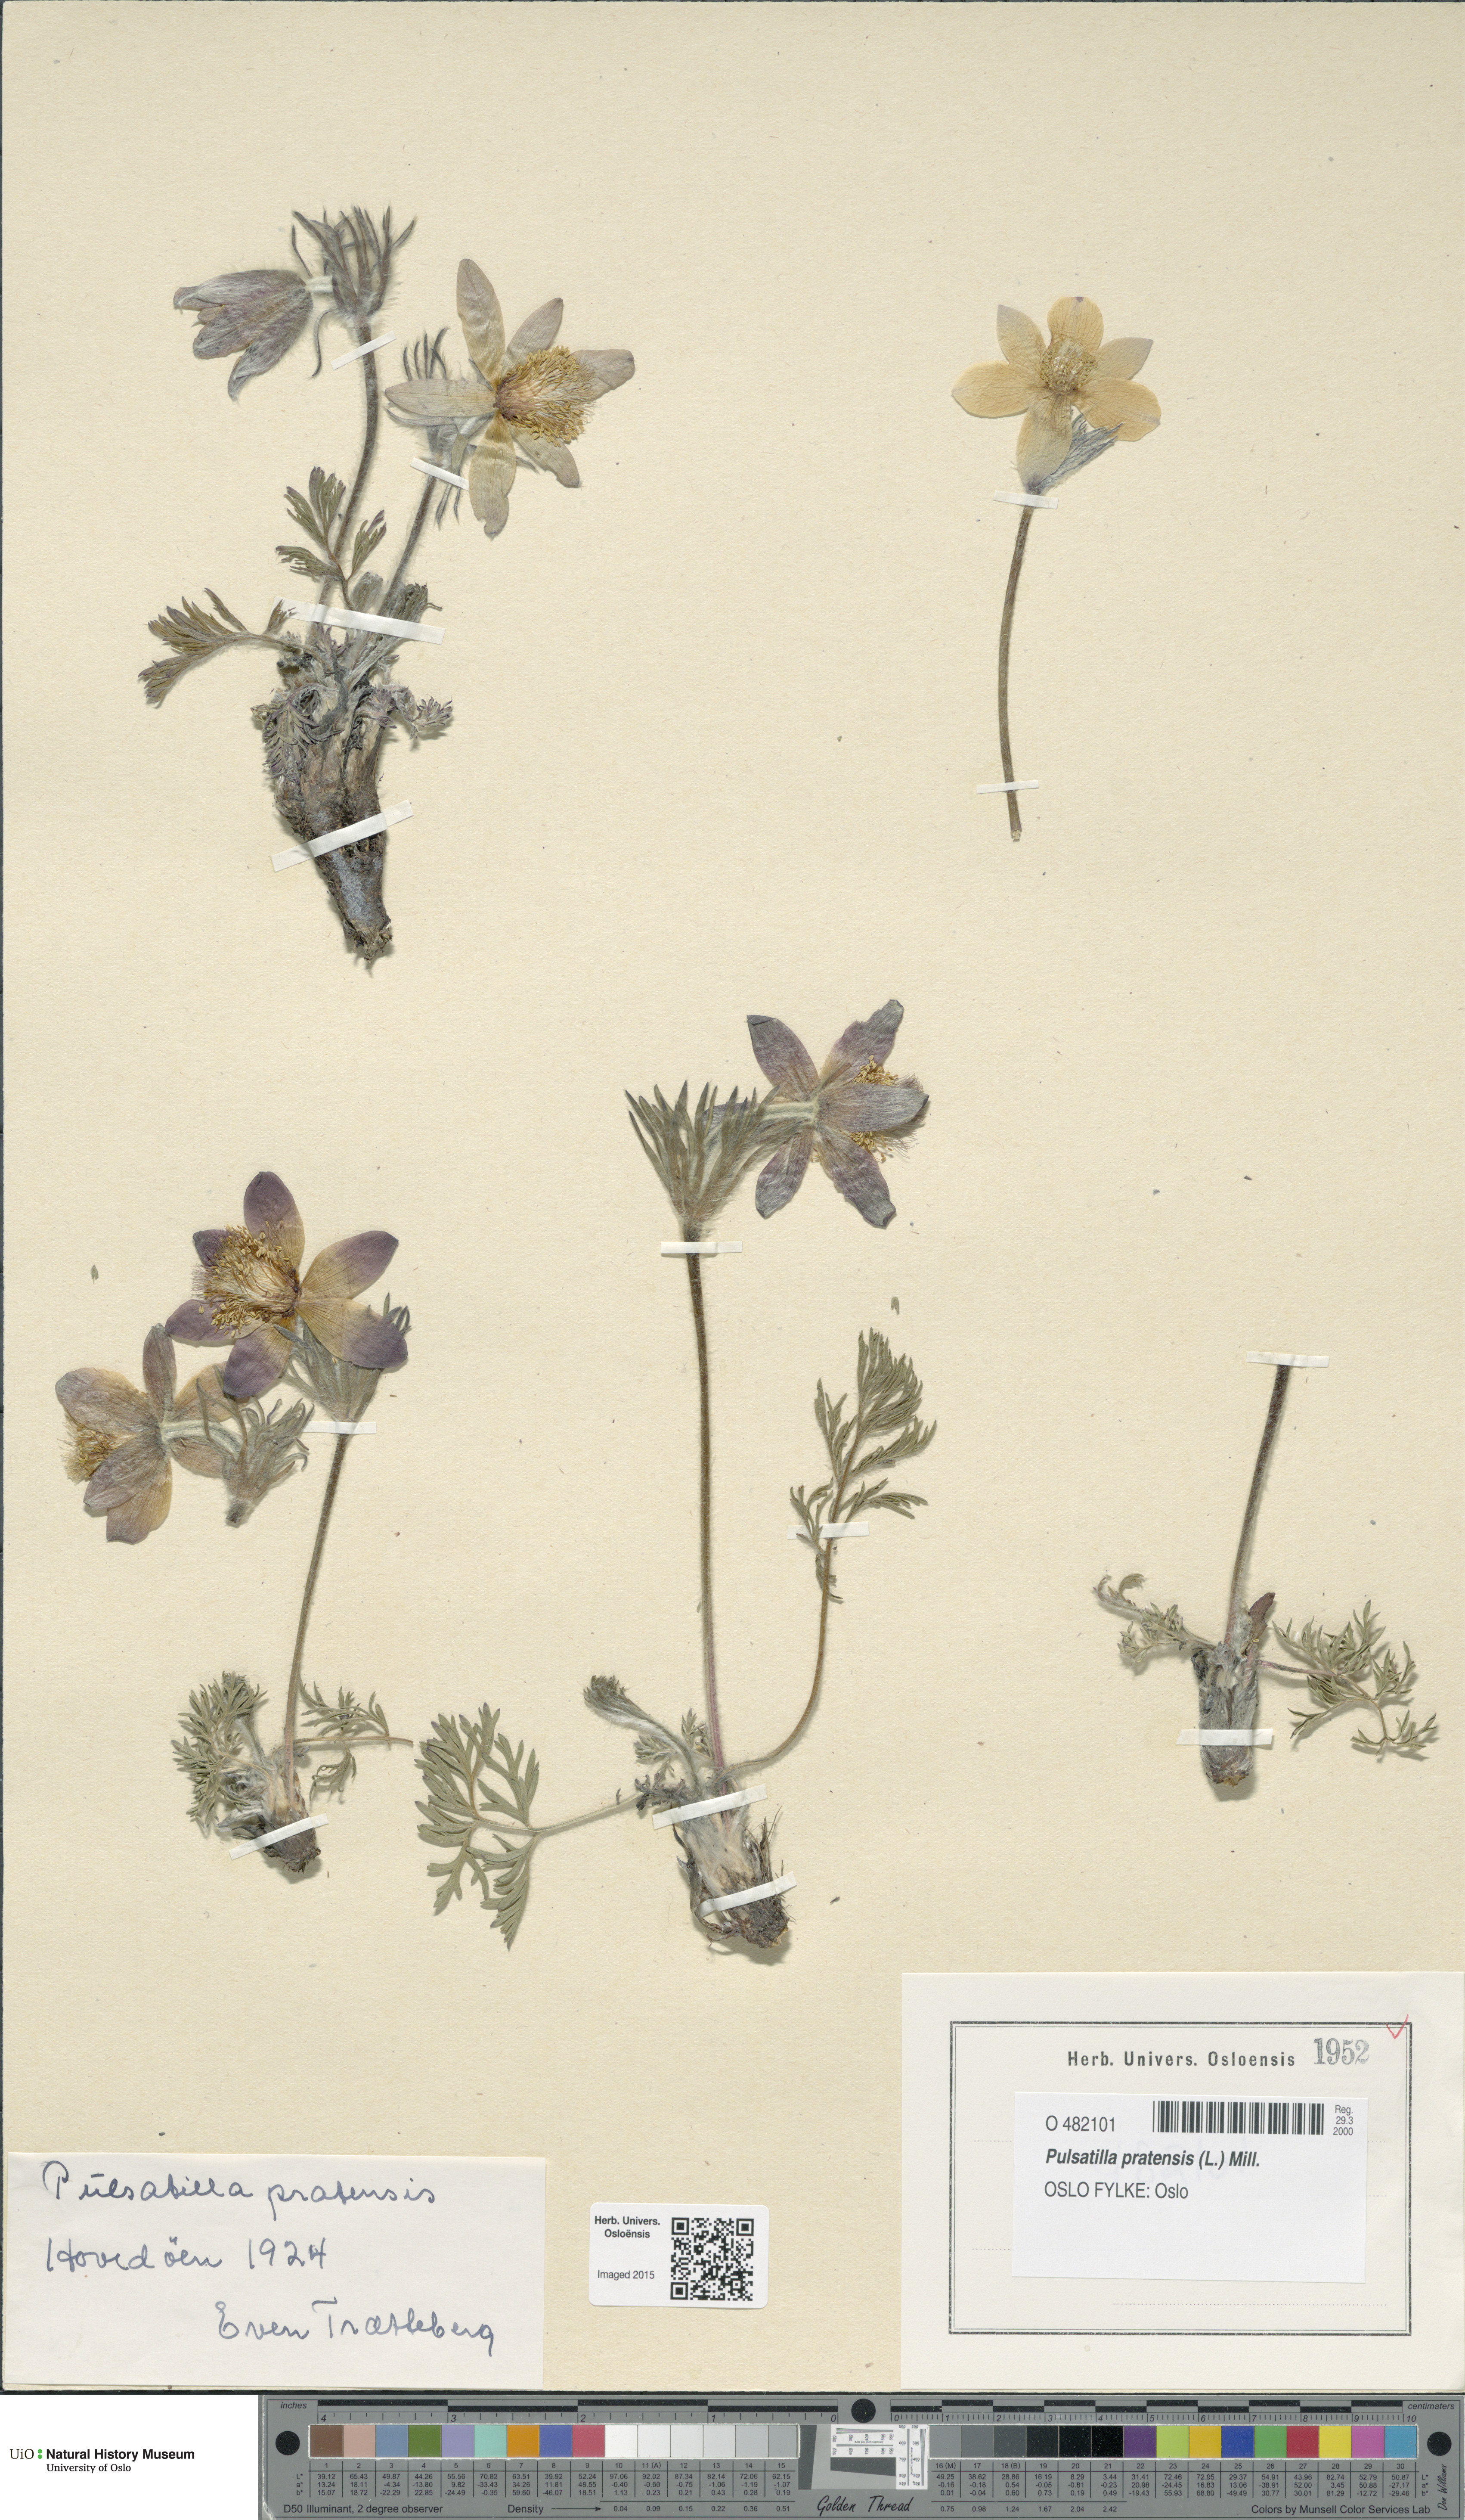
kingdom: Plantae
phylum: Tracheophyta
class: Magnoliopsida
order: Ranunculales
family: Ranunculaceae
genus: Pulsatilla
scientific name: Pulsatilla pratensis
